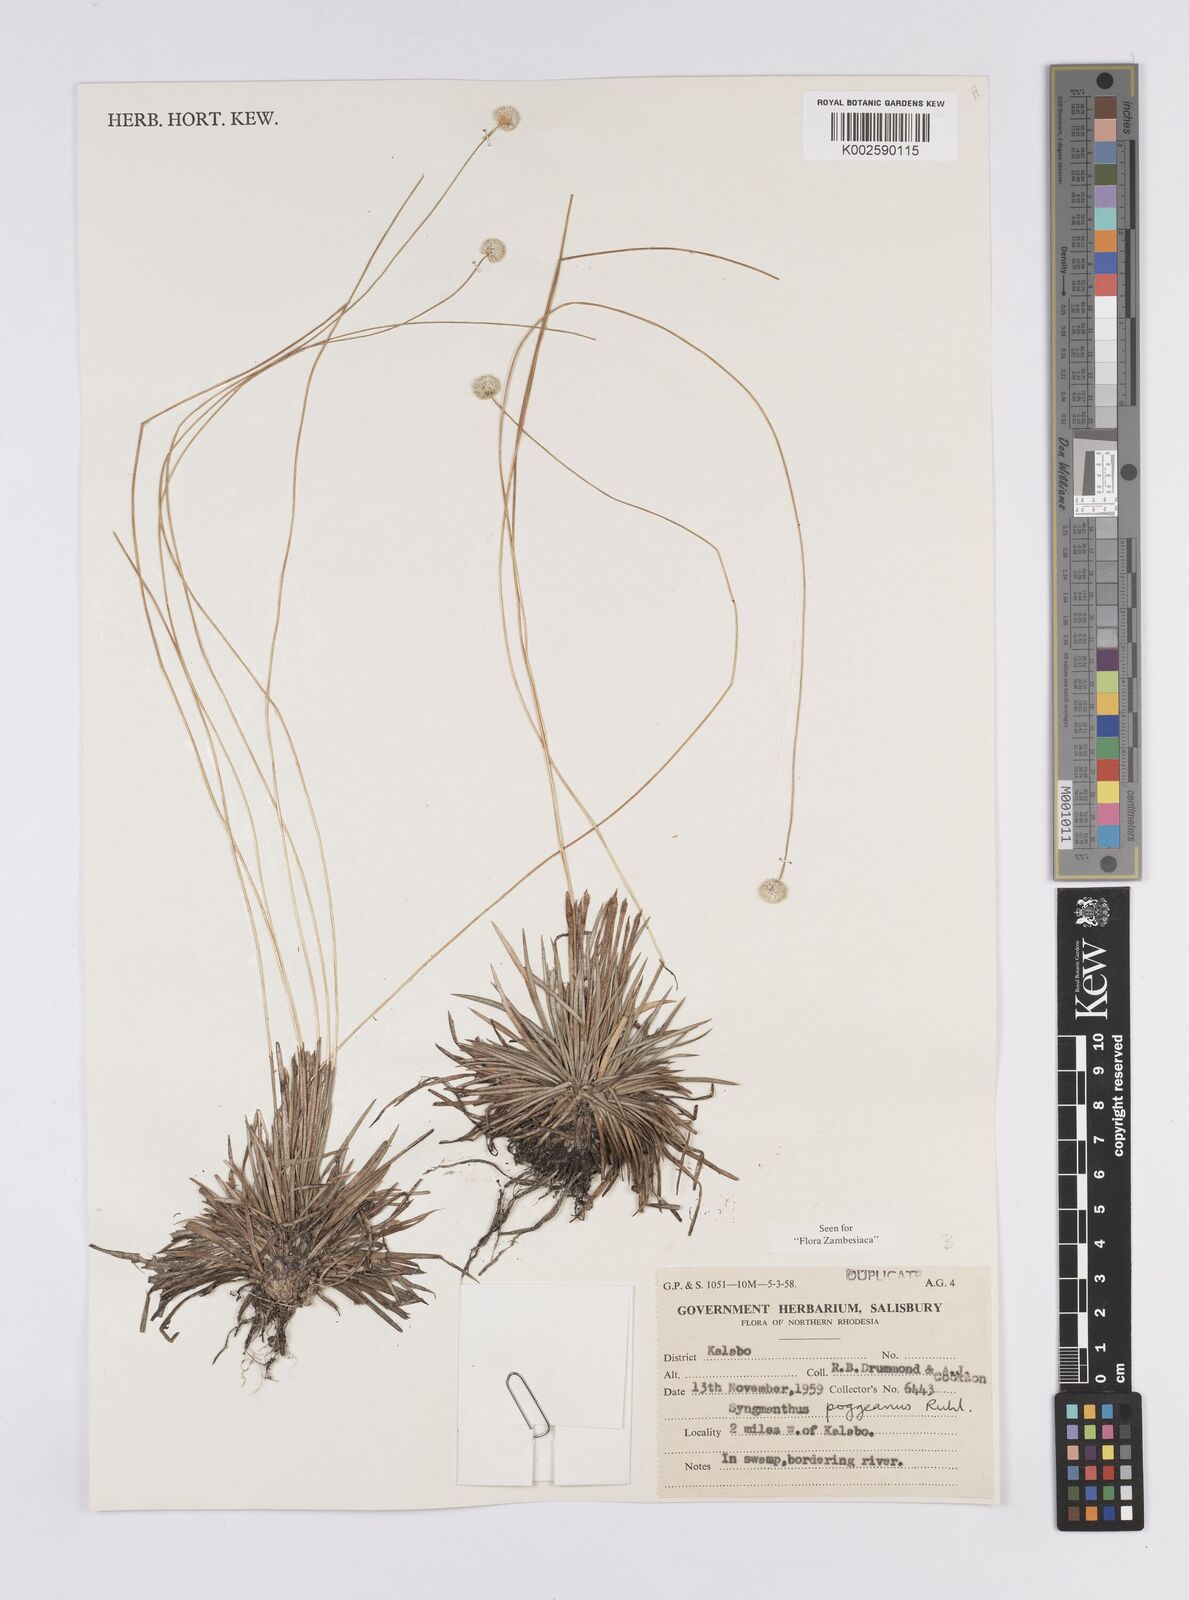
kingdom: Plantae
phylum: Tracheophyta
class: Liliopsida
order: Poales
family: Eriocaulaceae
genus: Syngonanthus
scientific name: Syngonanthus poggeanus
